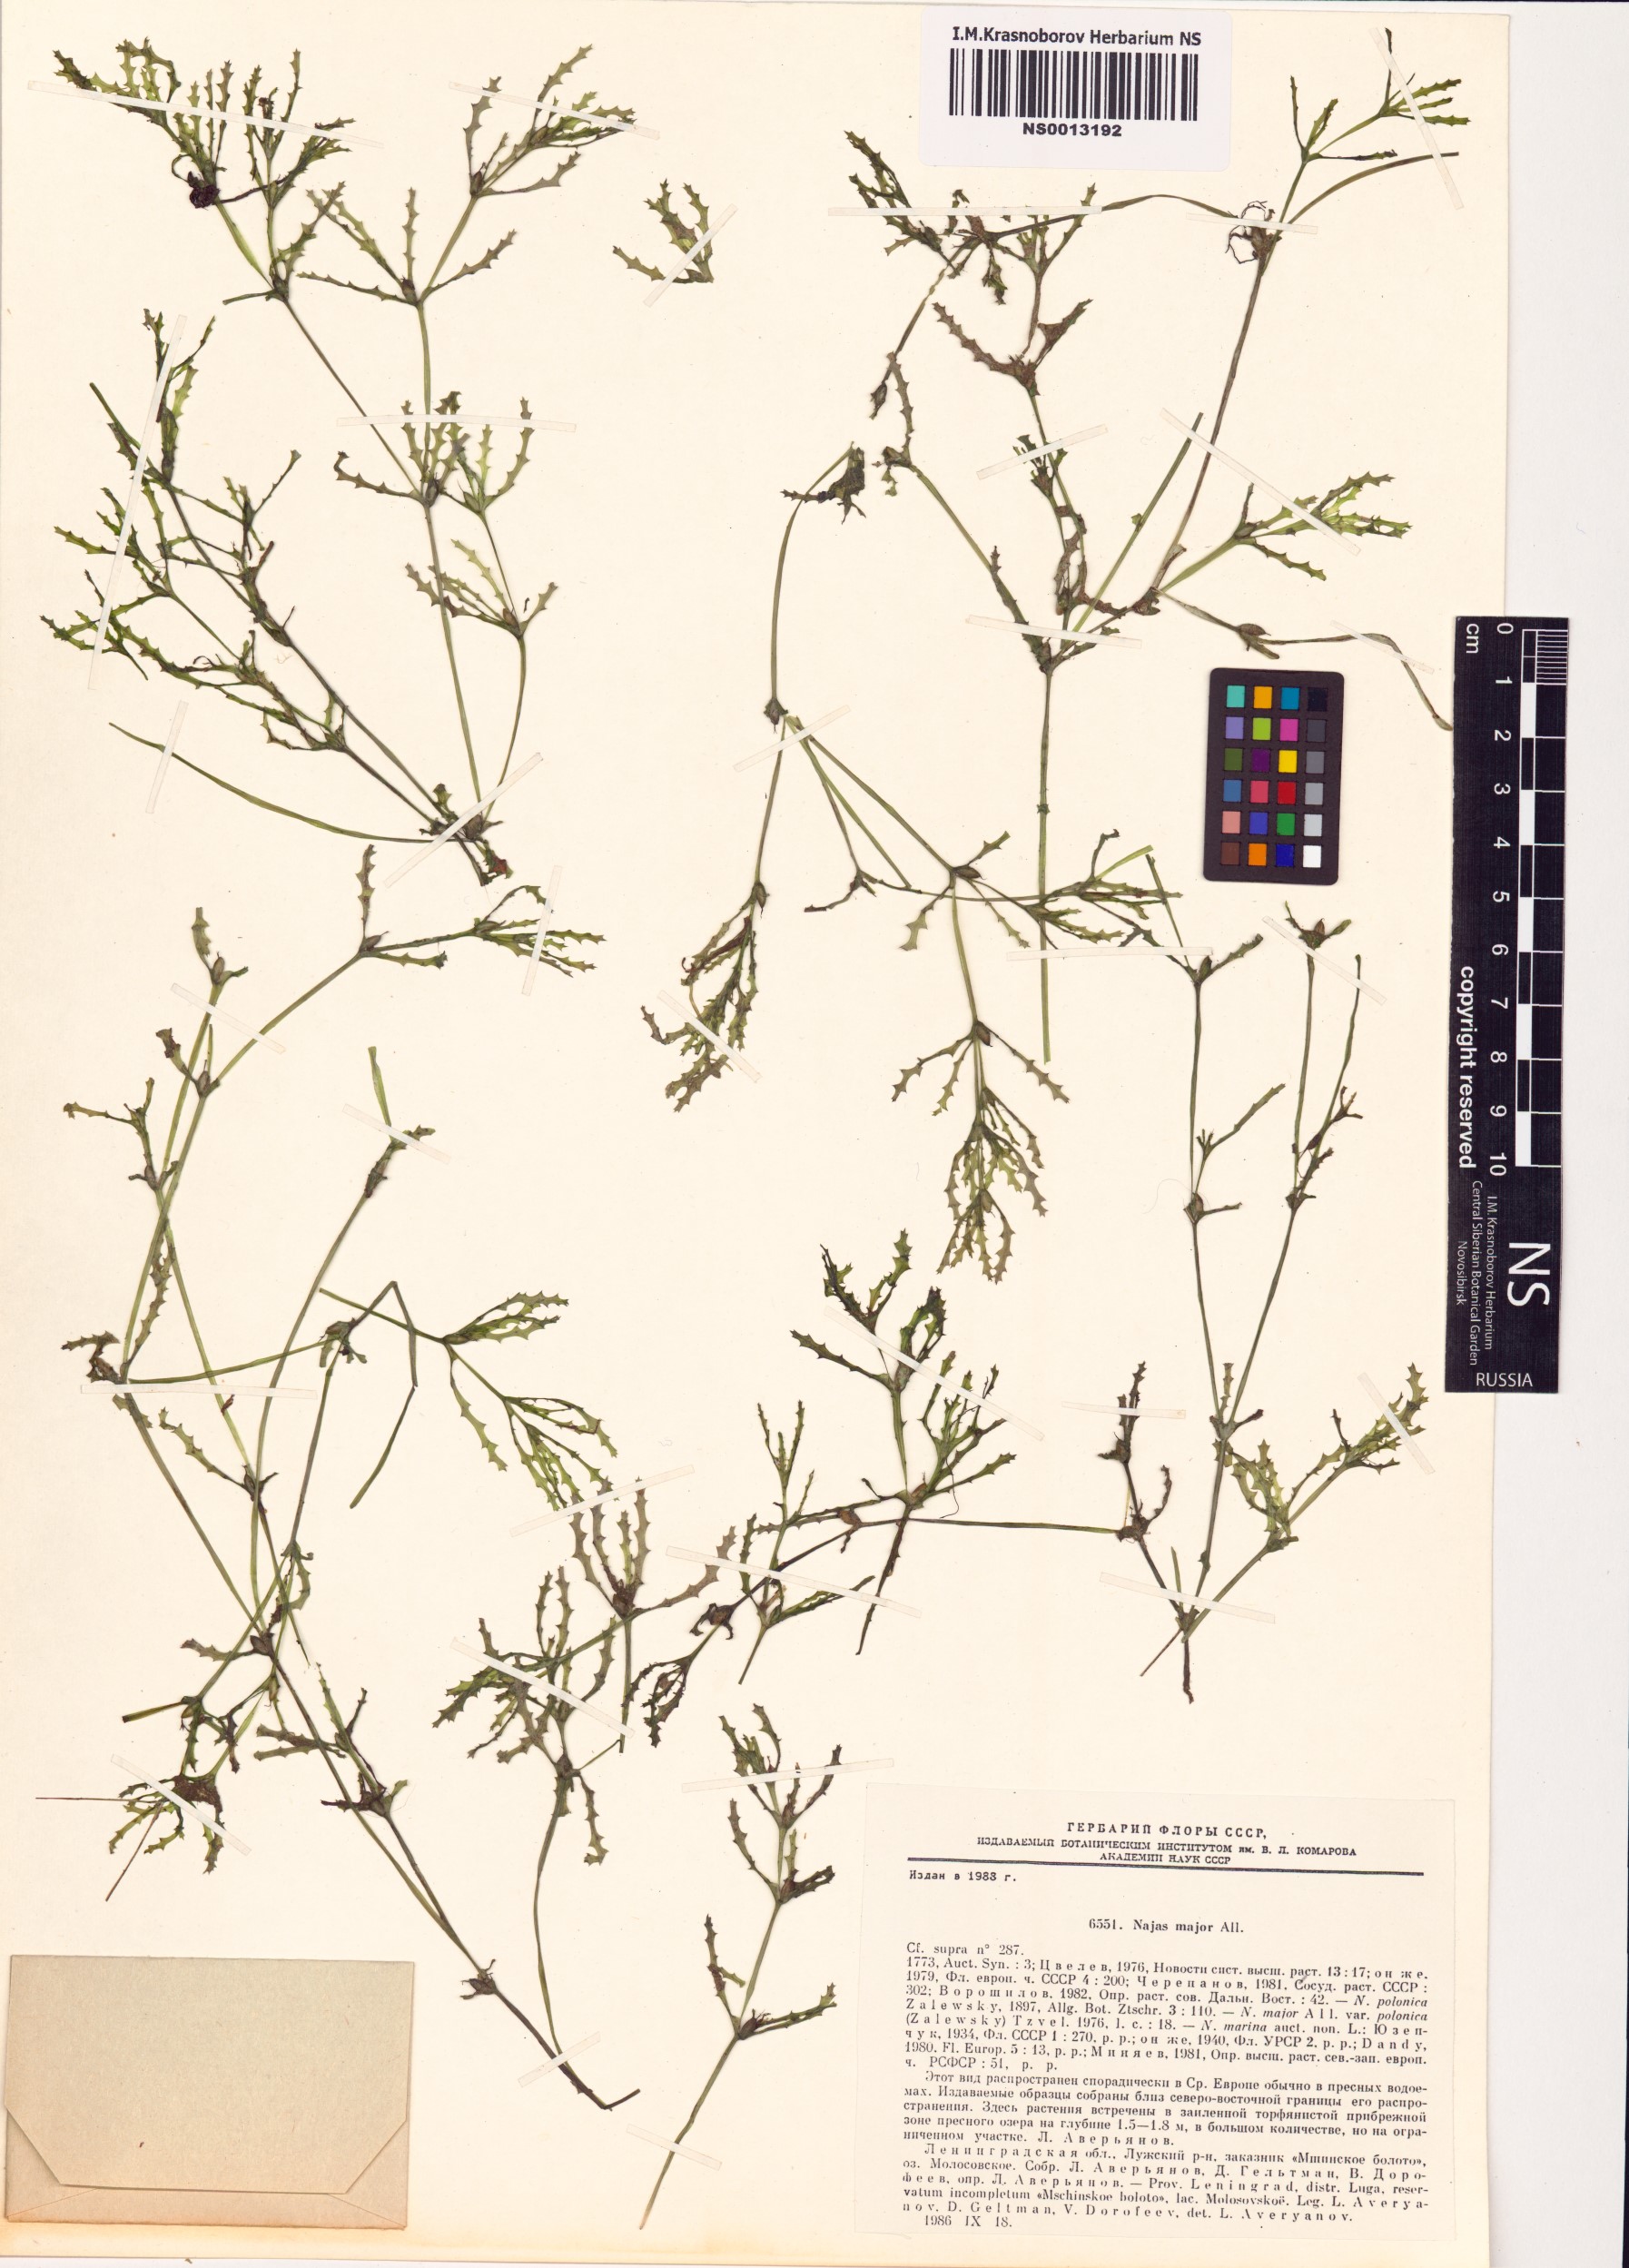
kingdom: Plantae
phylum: Tracheophyta
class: Liliopsida
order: Alismatales
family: Hydrocharitaceae
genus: Najas
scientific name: Najas major
